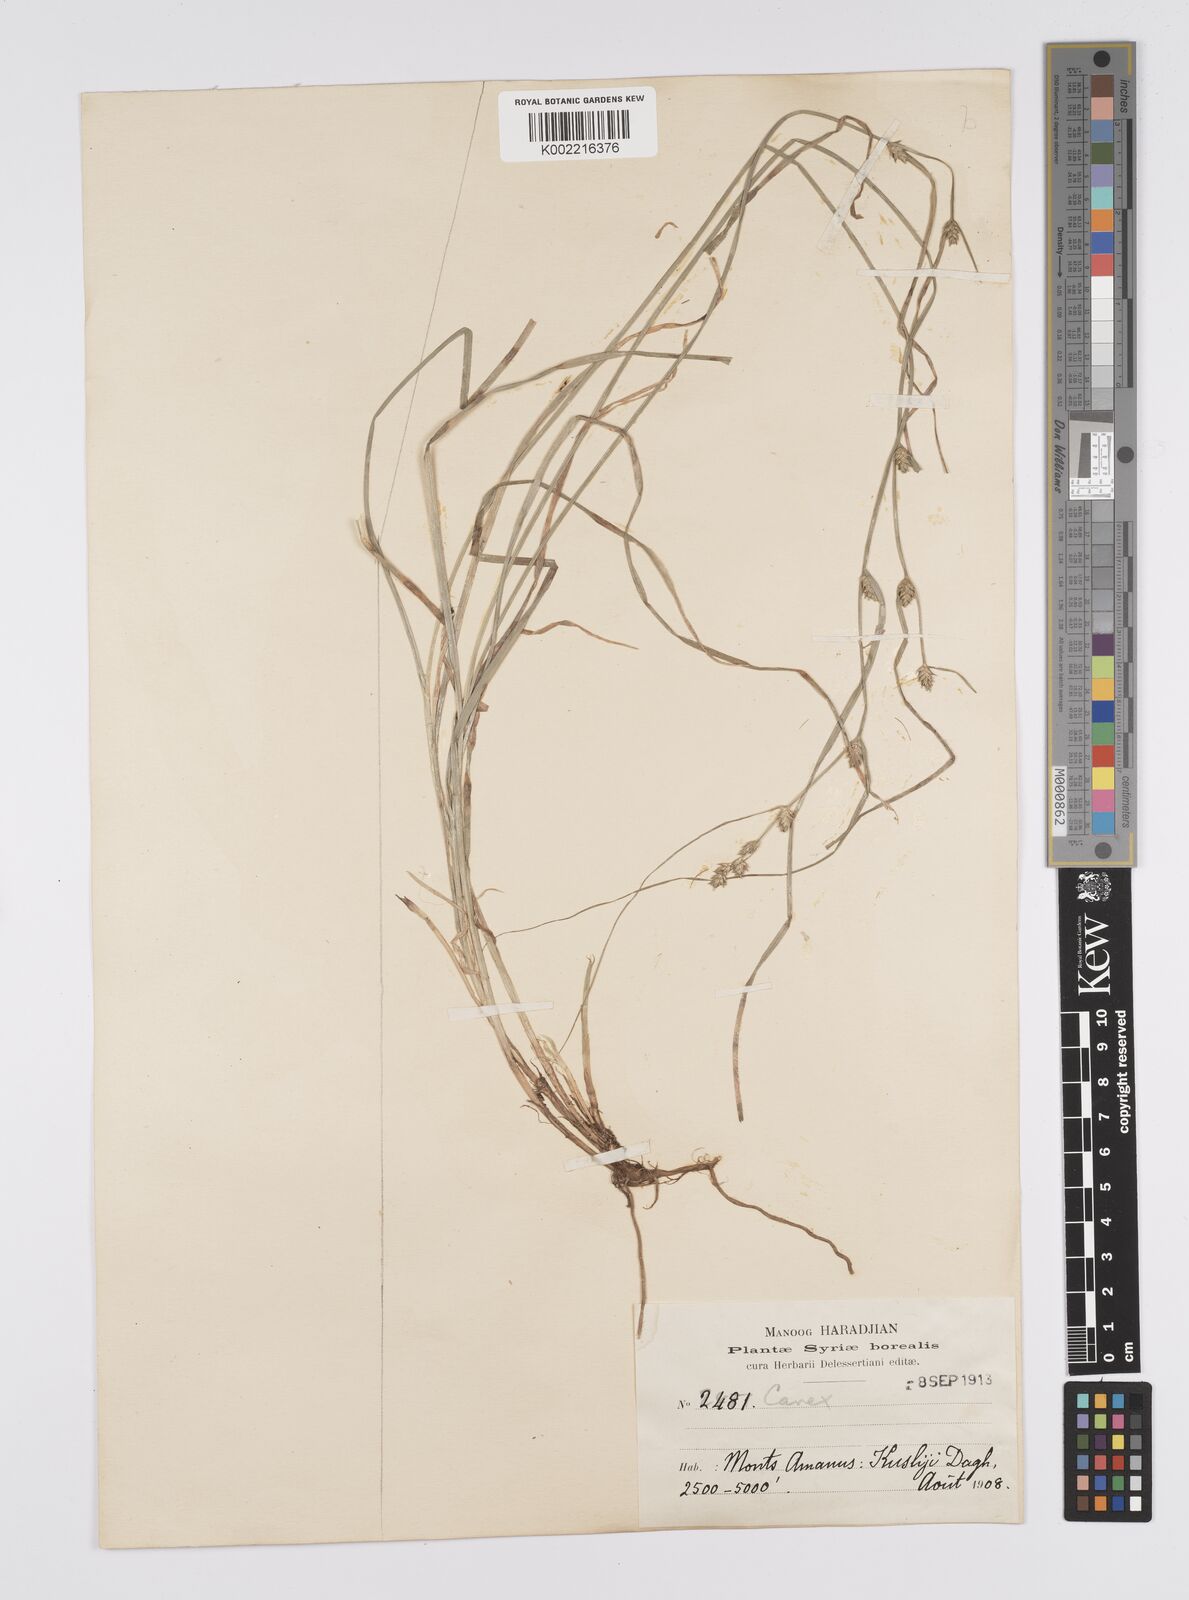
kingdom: Plantae
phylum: Tracheophyta
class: Liliopsida
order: Poales
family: Cyperaceae
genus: Carex
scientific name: Carex remota
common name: Remote sedge
